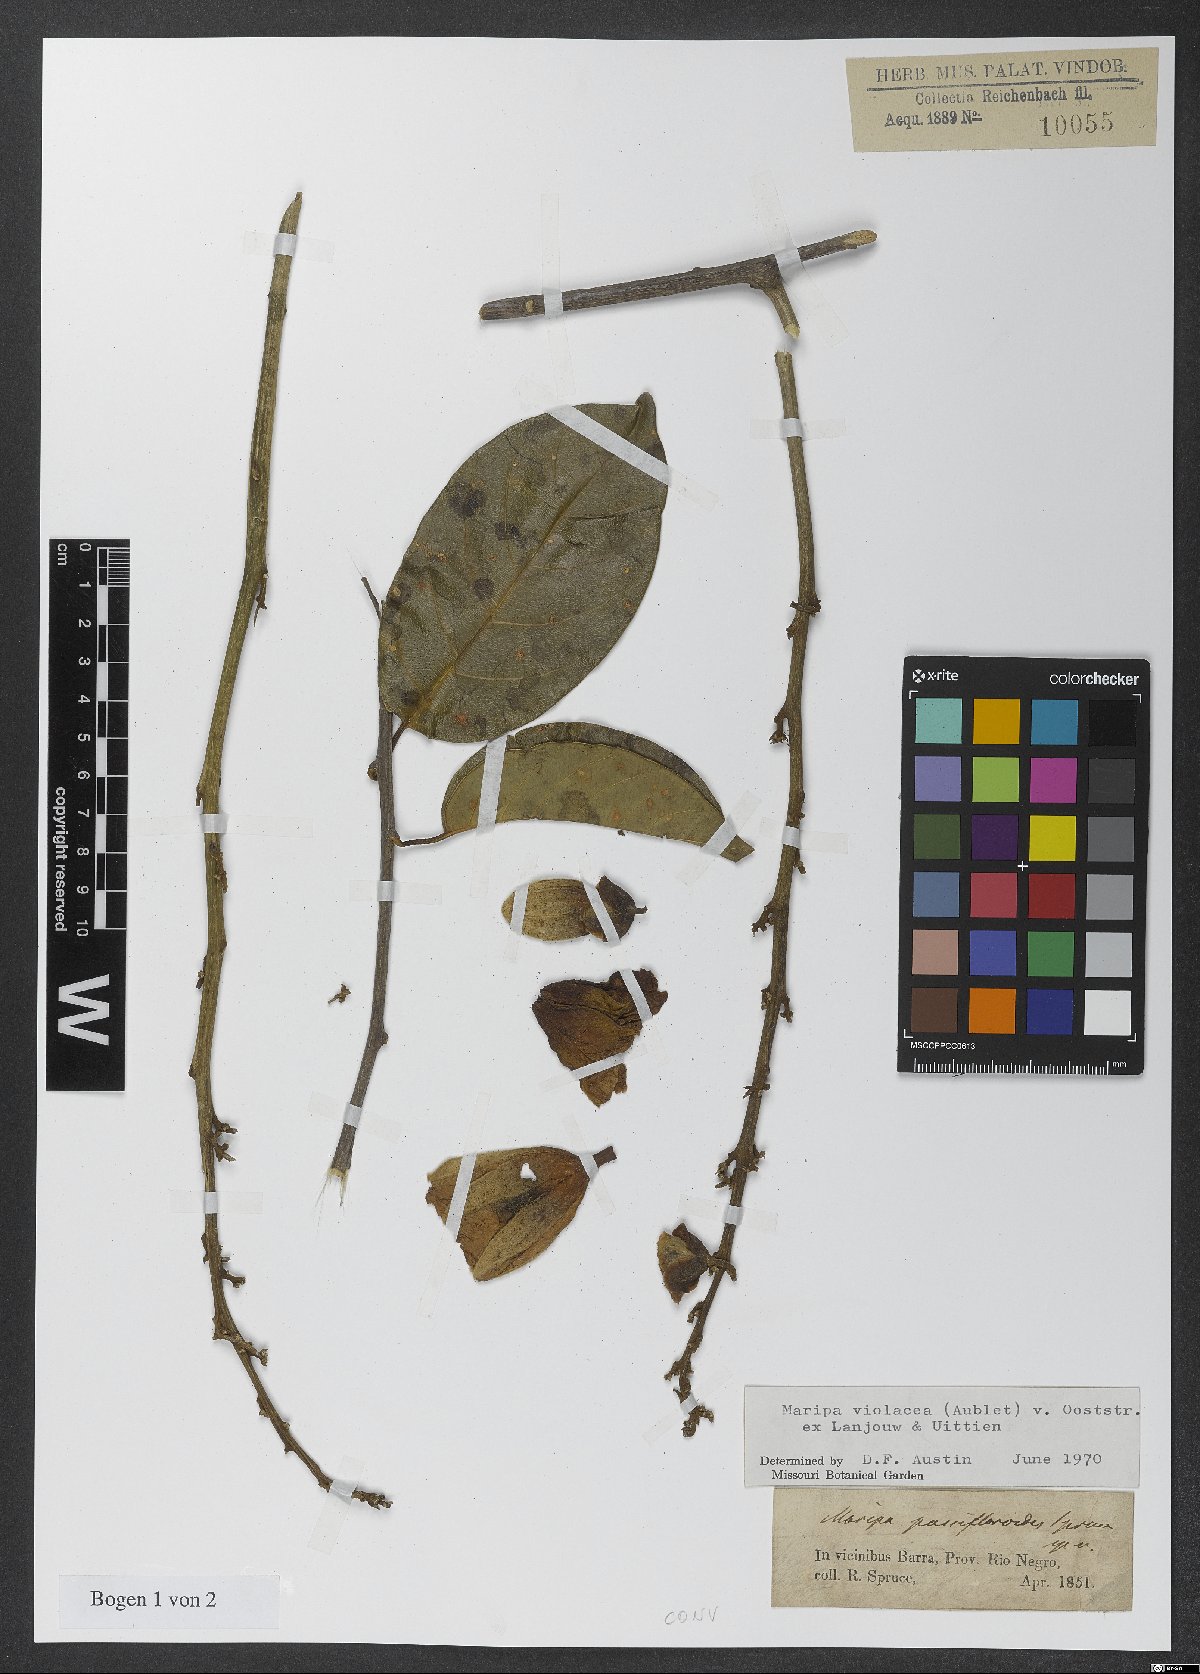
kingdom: Plantae
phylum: Tracheophyta
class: Magnoliopsida
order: Solanales
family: Convolvulaceae
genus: Maripa
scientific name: Maripa violacea
